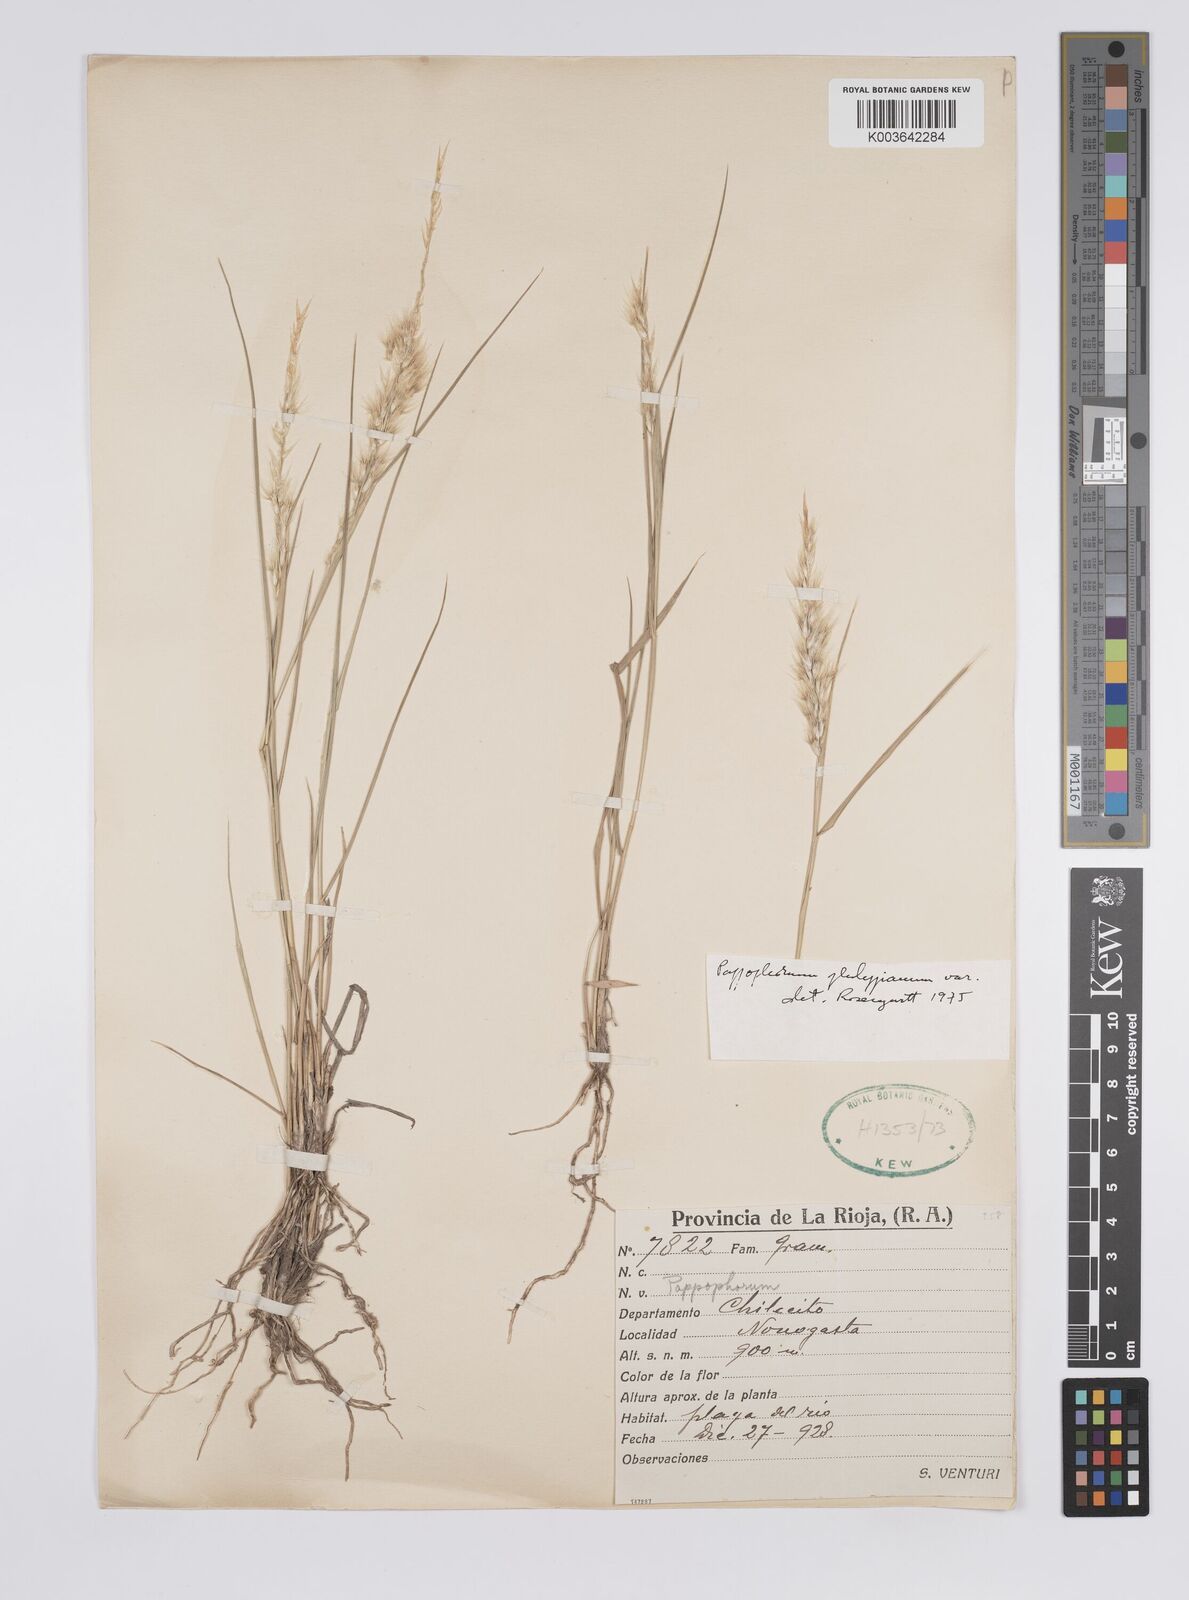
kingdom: Plantae
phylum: Tracheophyta
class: Liliopsida
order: Poales
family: Poaceae
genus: Pappophorum
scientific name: Pappophorum philippianum
